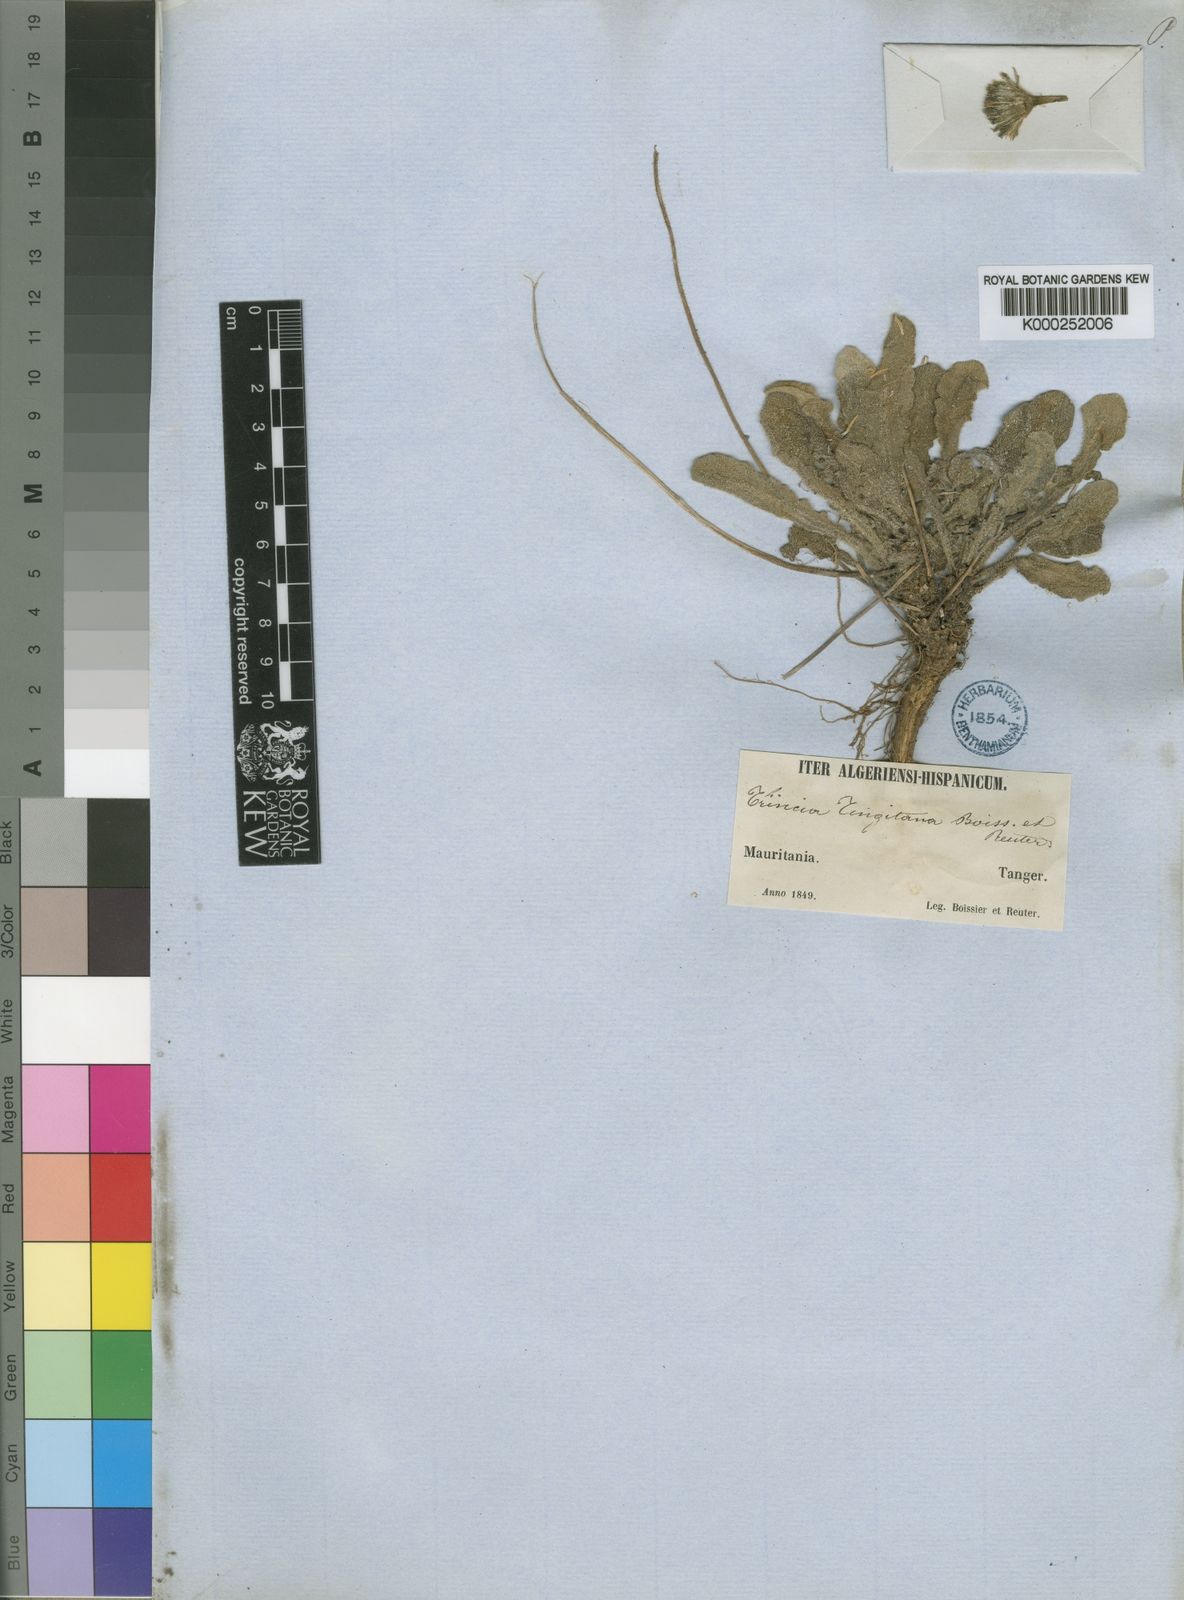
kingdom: Plantae
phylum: Tracheophyta
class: Magnoliopsida
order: Asterales
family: Asteraceae
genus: Leontodon
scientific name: Leontodon
